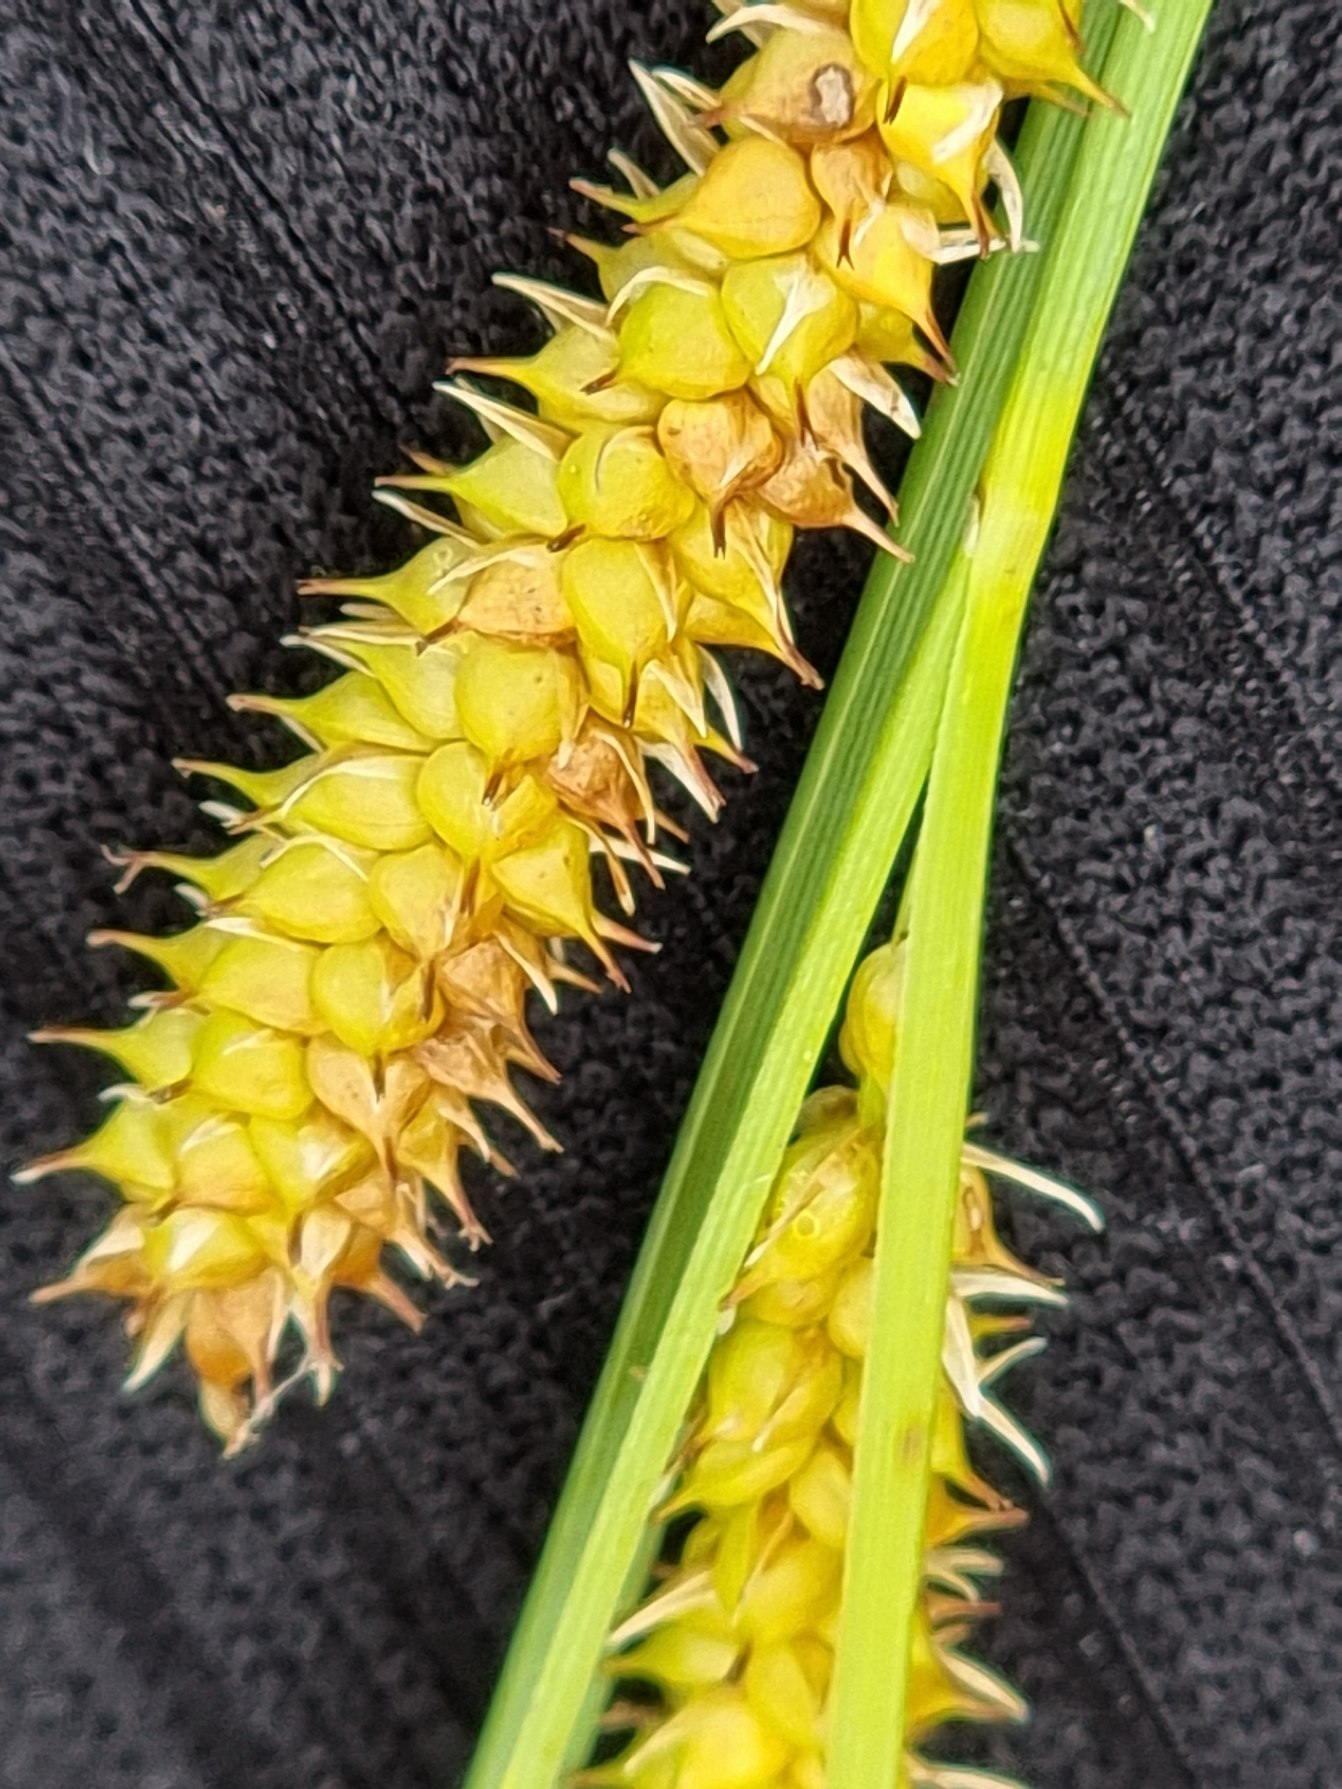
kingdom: Plantae
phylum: Tracheophyta
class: Liliopsida
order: Poales
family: Cyperaceae
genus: Carex
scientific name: Carex rostrata
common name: Næb-star
